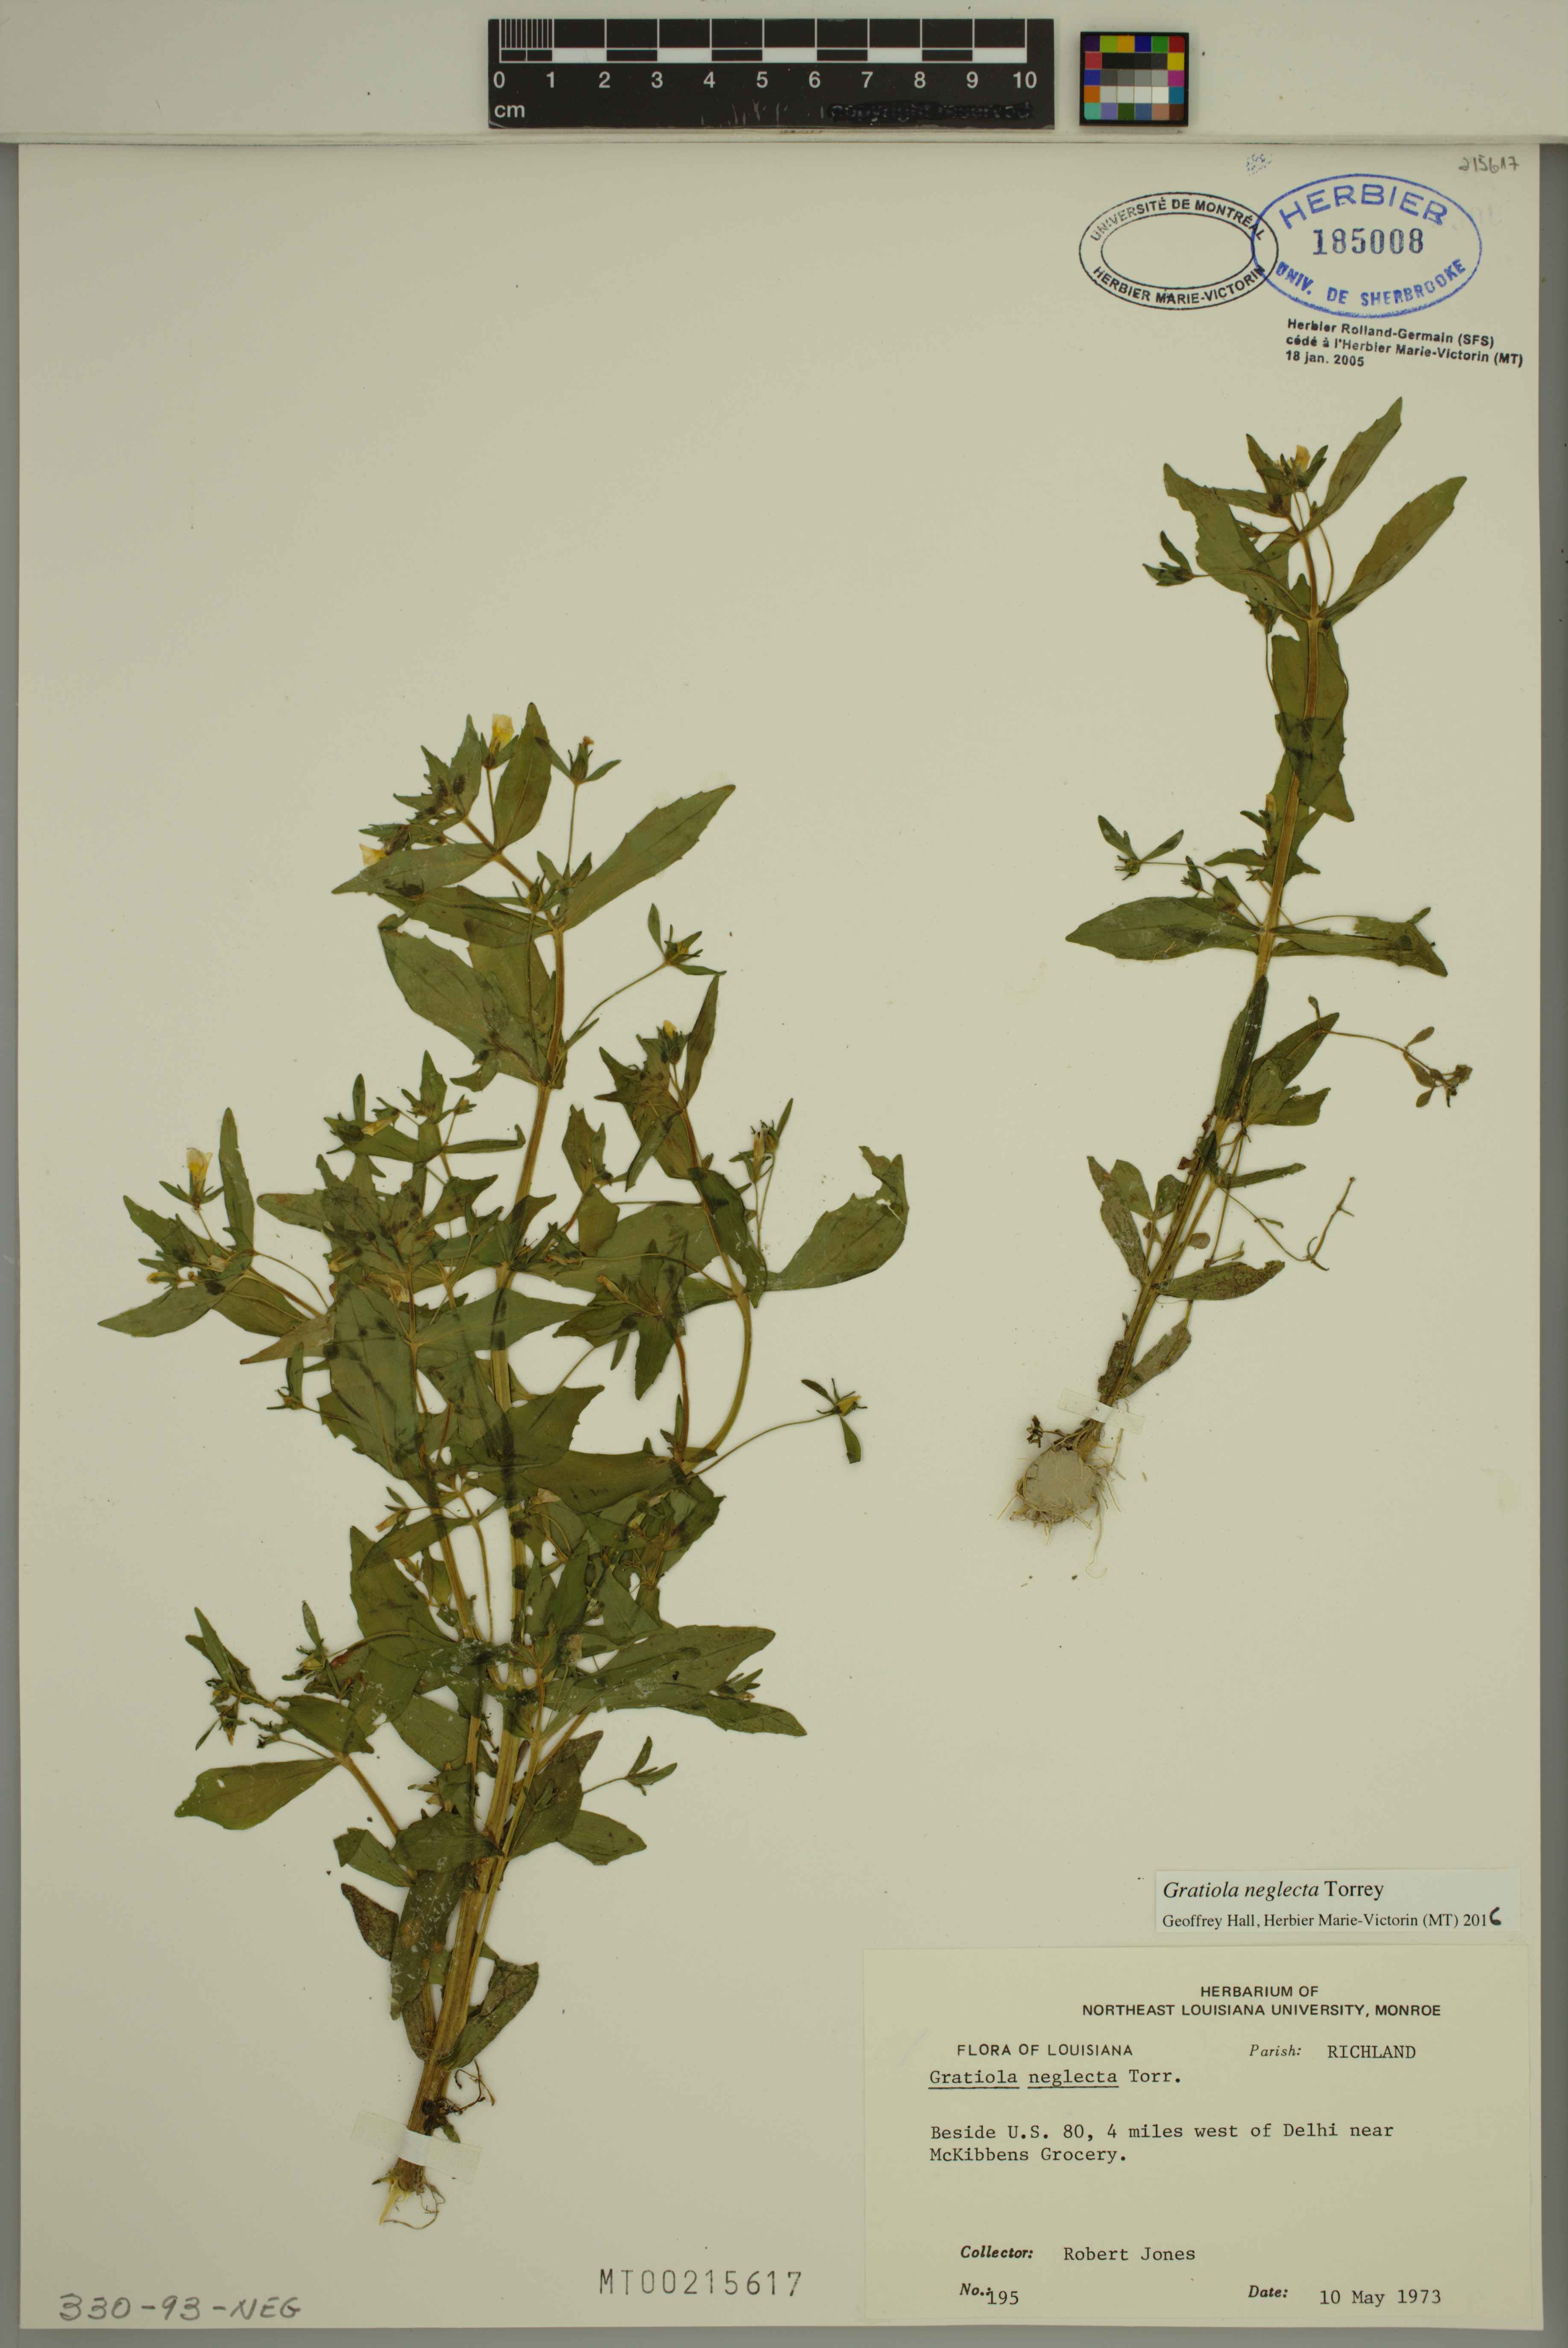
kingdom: Plantae
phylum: Tracheophyta
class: Magnoliopsida
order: Lamiales
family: Plantaginaceae
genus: Gratiola
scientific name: Gratiola neglecta
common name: American hedge-hyssop
